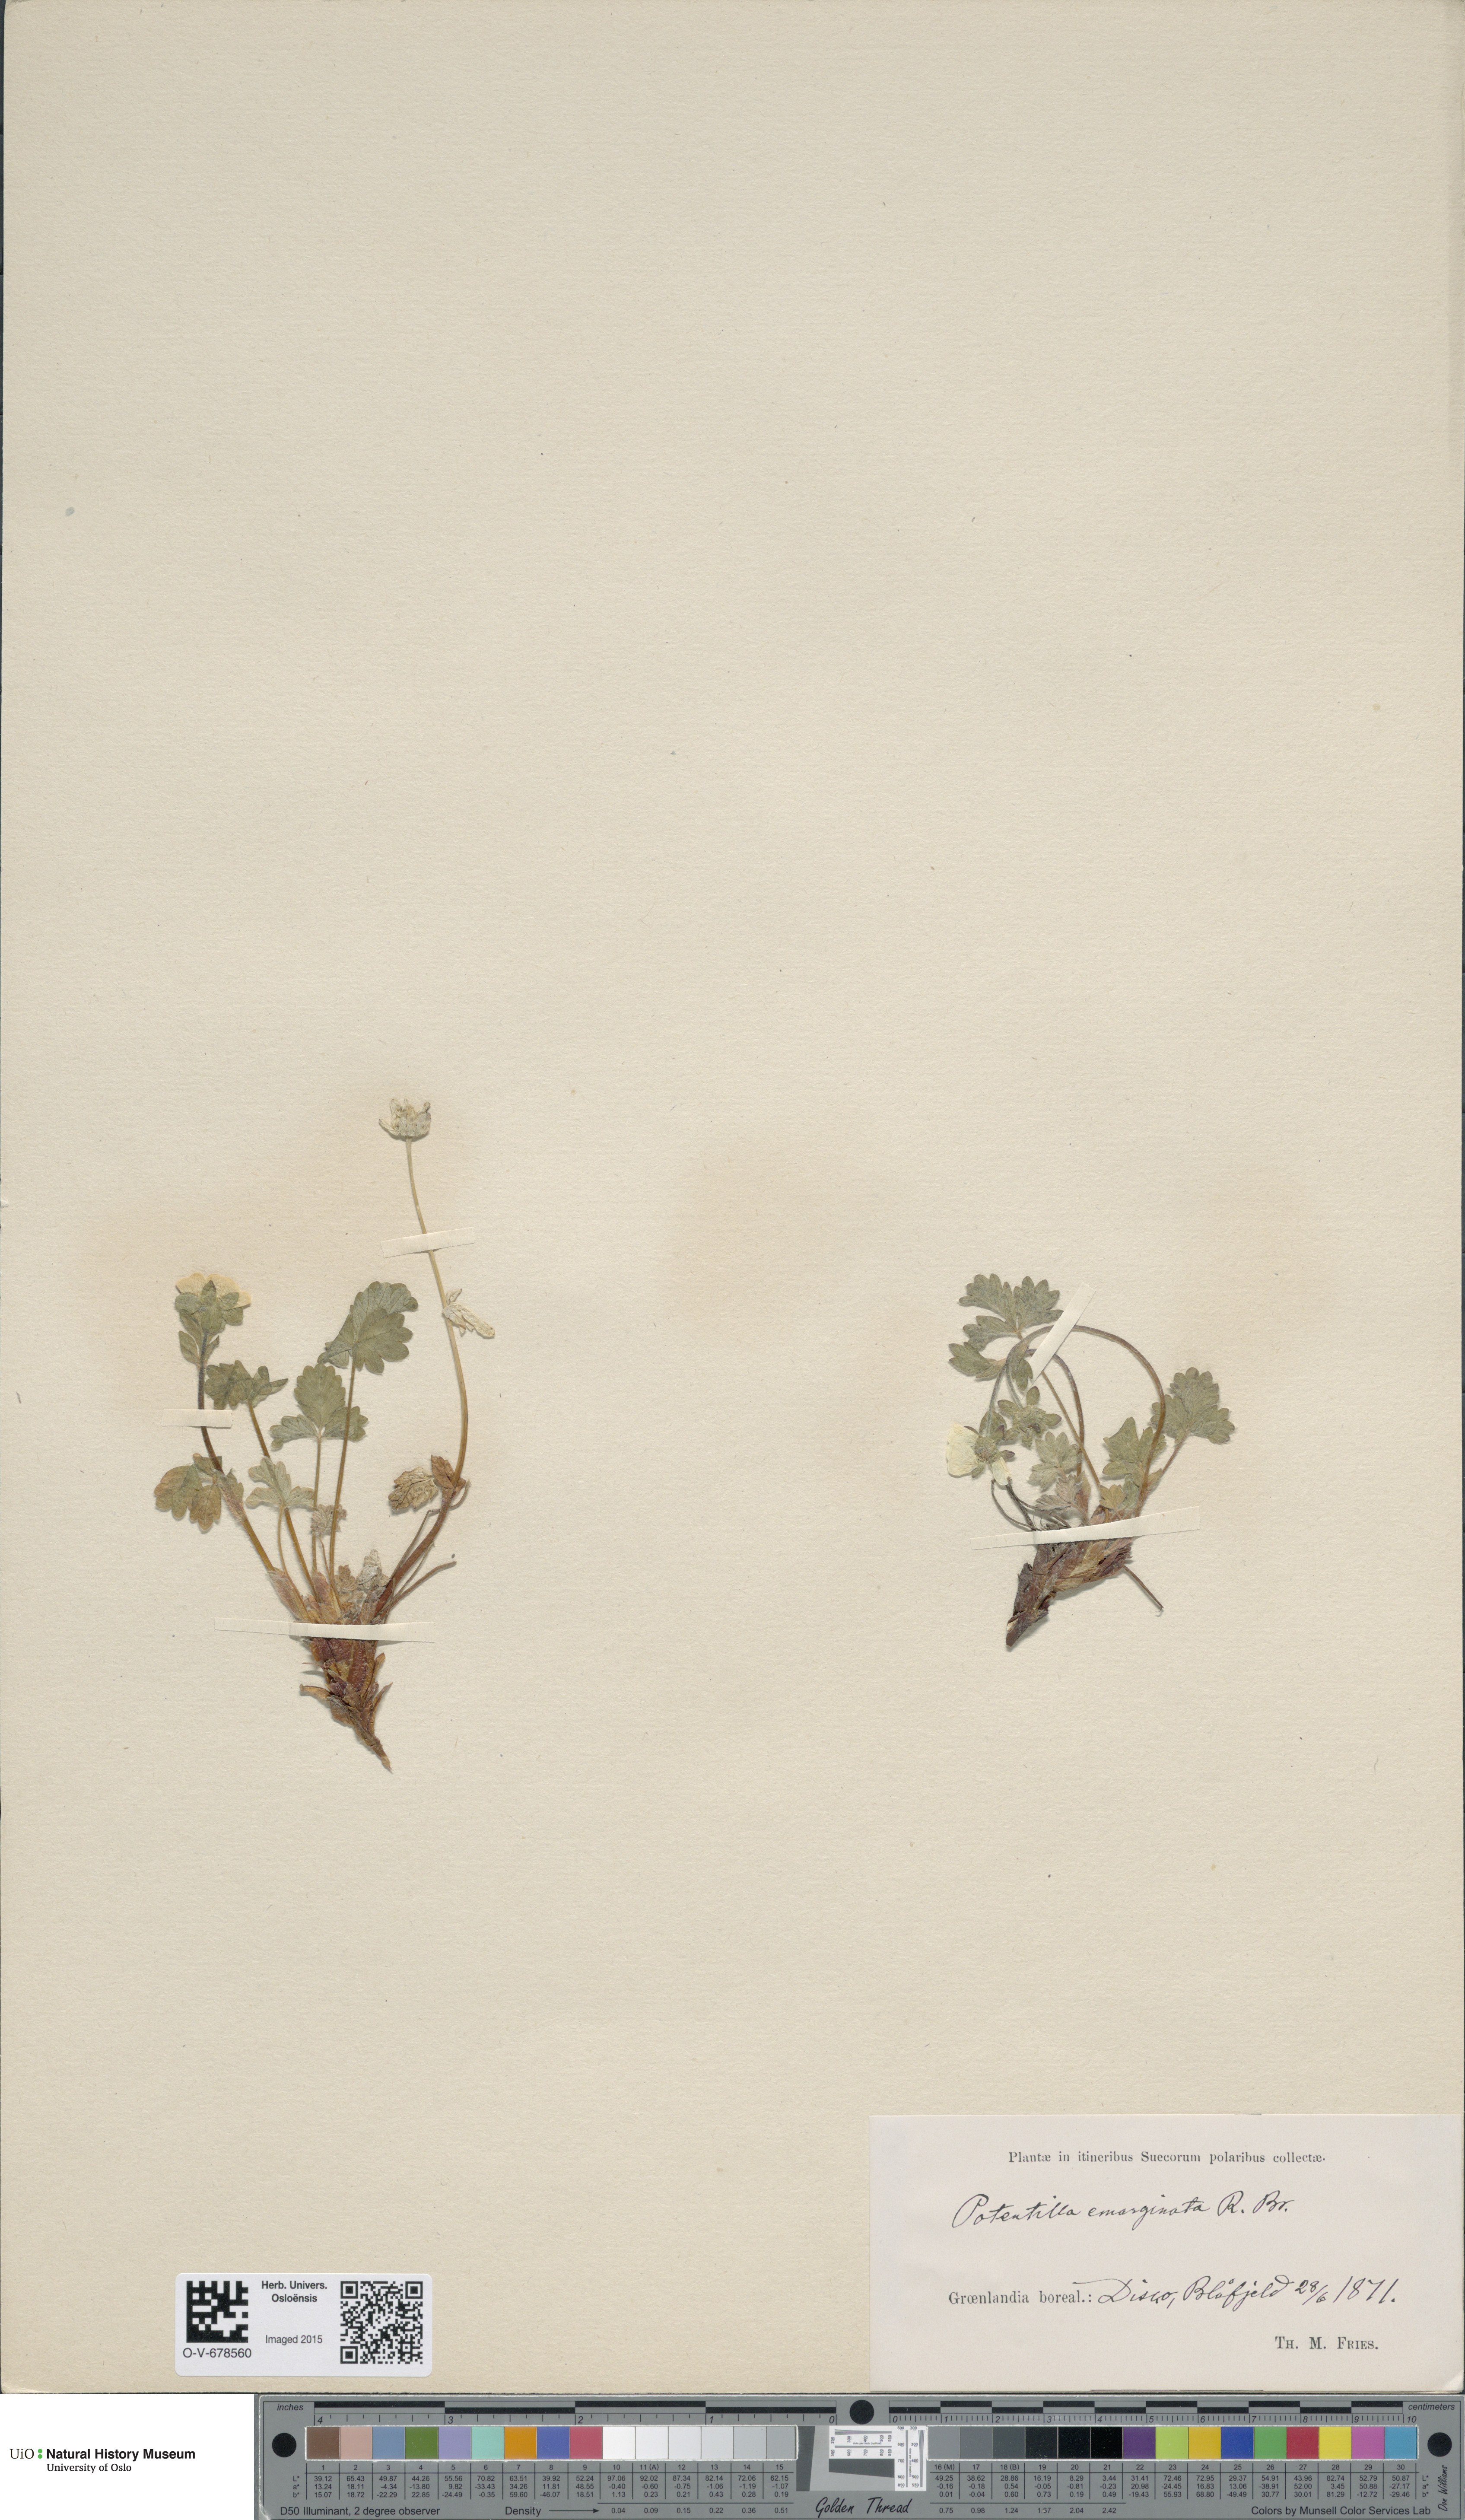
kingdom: Plantae
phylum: Tracheophyta
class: Magnoliopsida
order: Rosales
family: Rosaceae
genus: Potentilla
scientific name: Potentilla hyparctica
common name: Arctic cinquefoil
